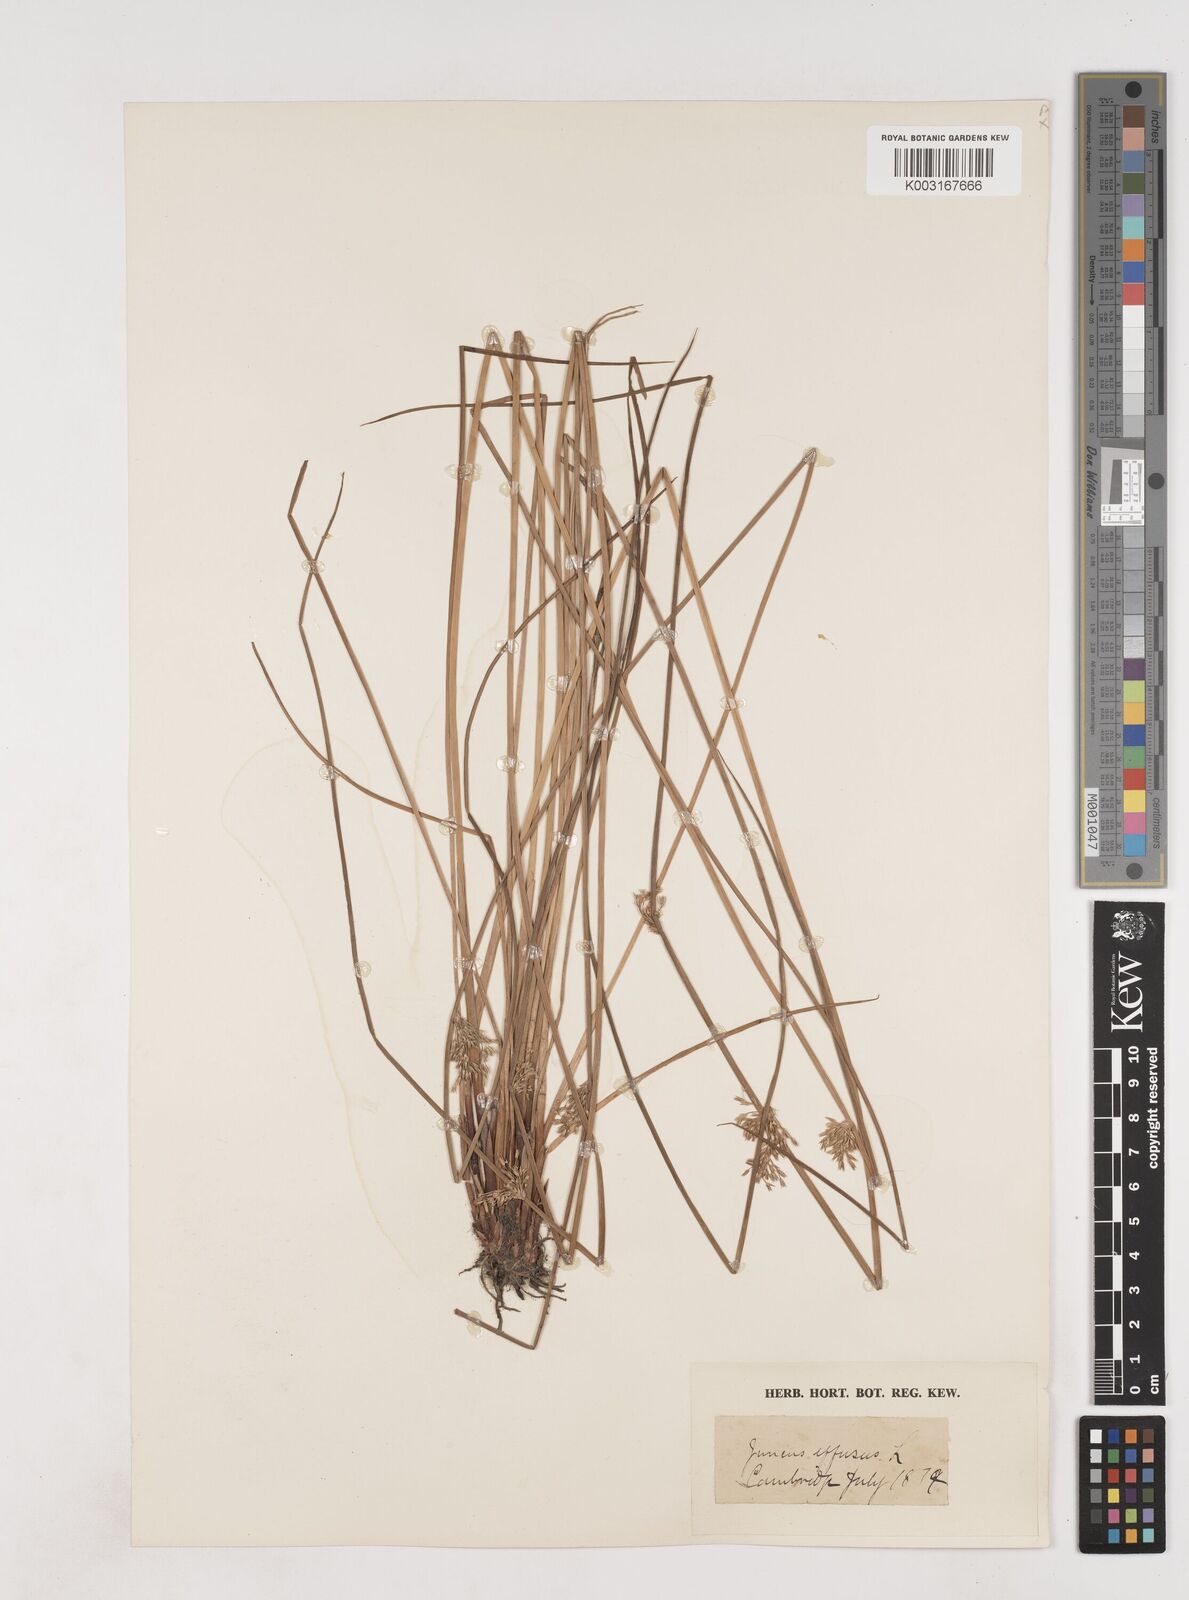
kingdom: Plantae
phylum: Tracheophyta
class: Liliopsida
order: Poales
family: Juncaceae
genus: Juncus
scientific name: Juncus effusus
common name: Soft rush
